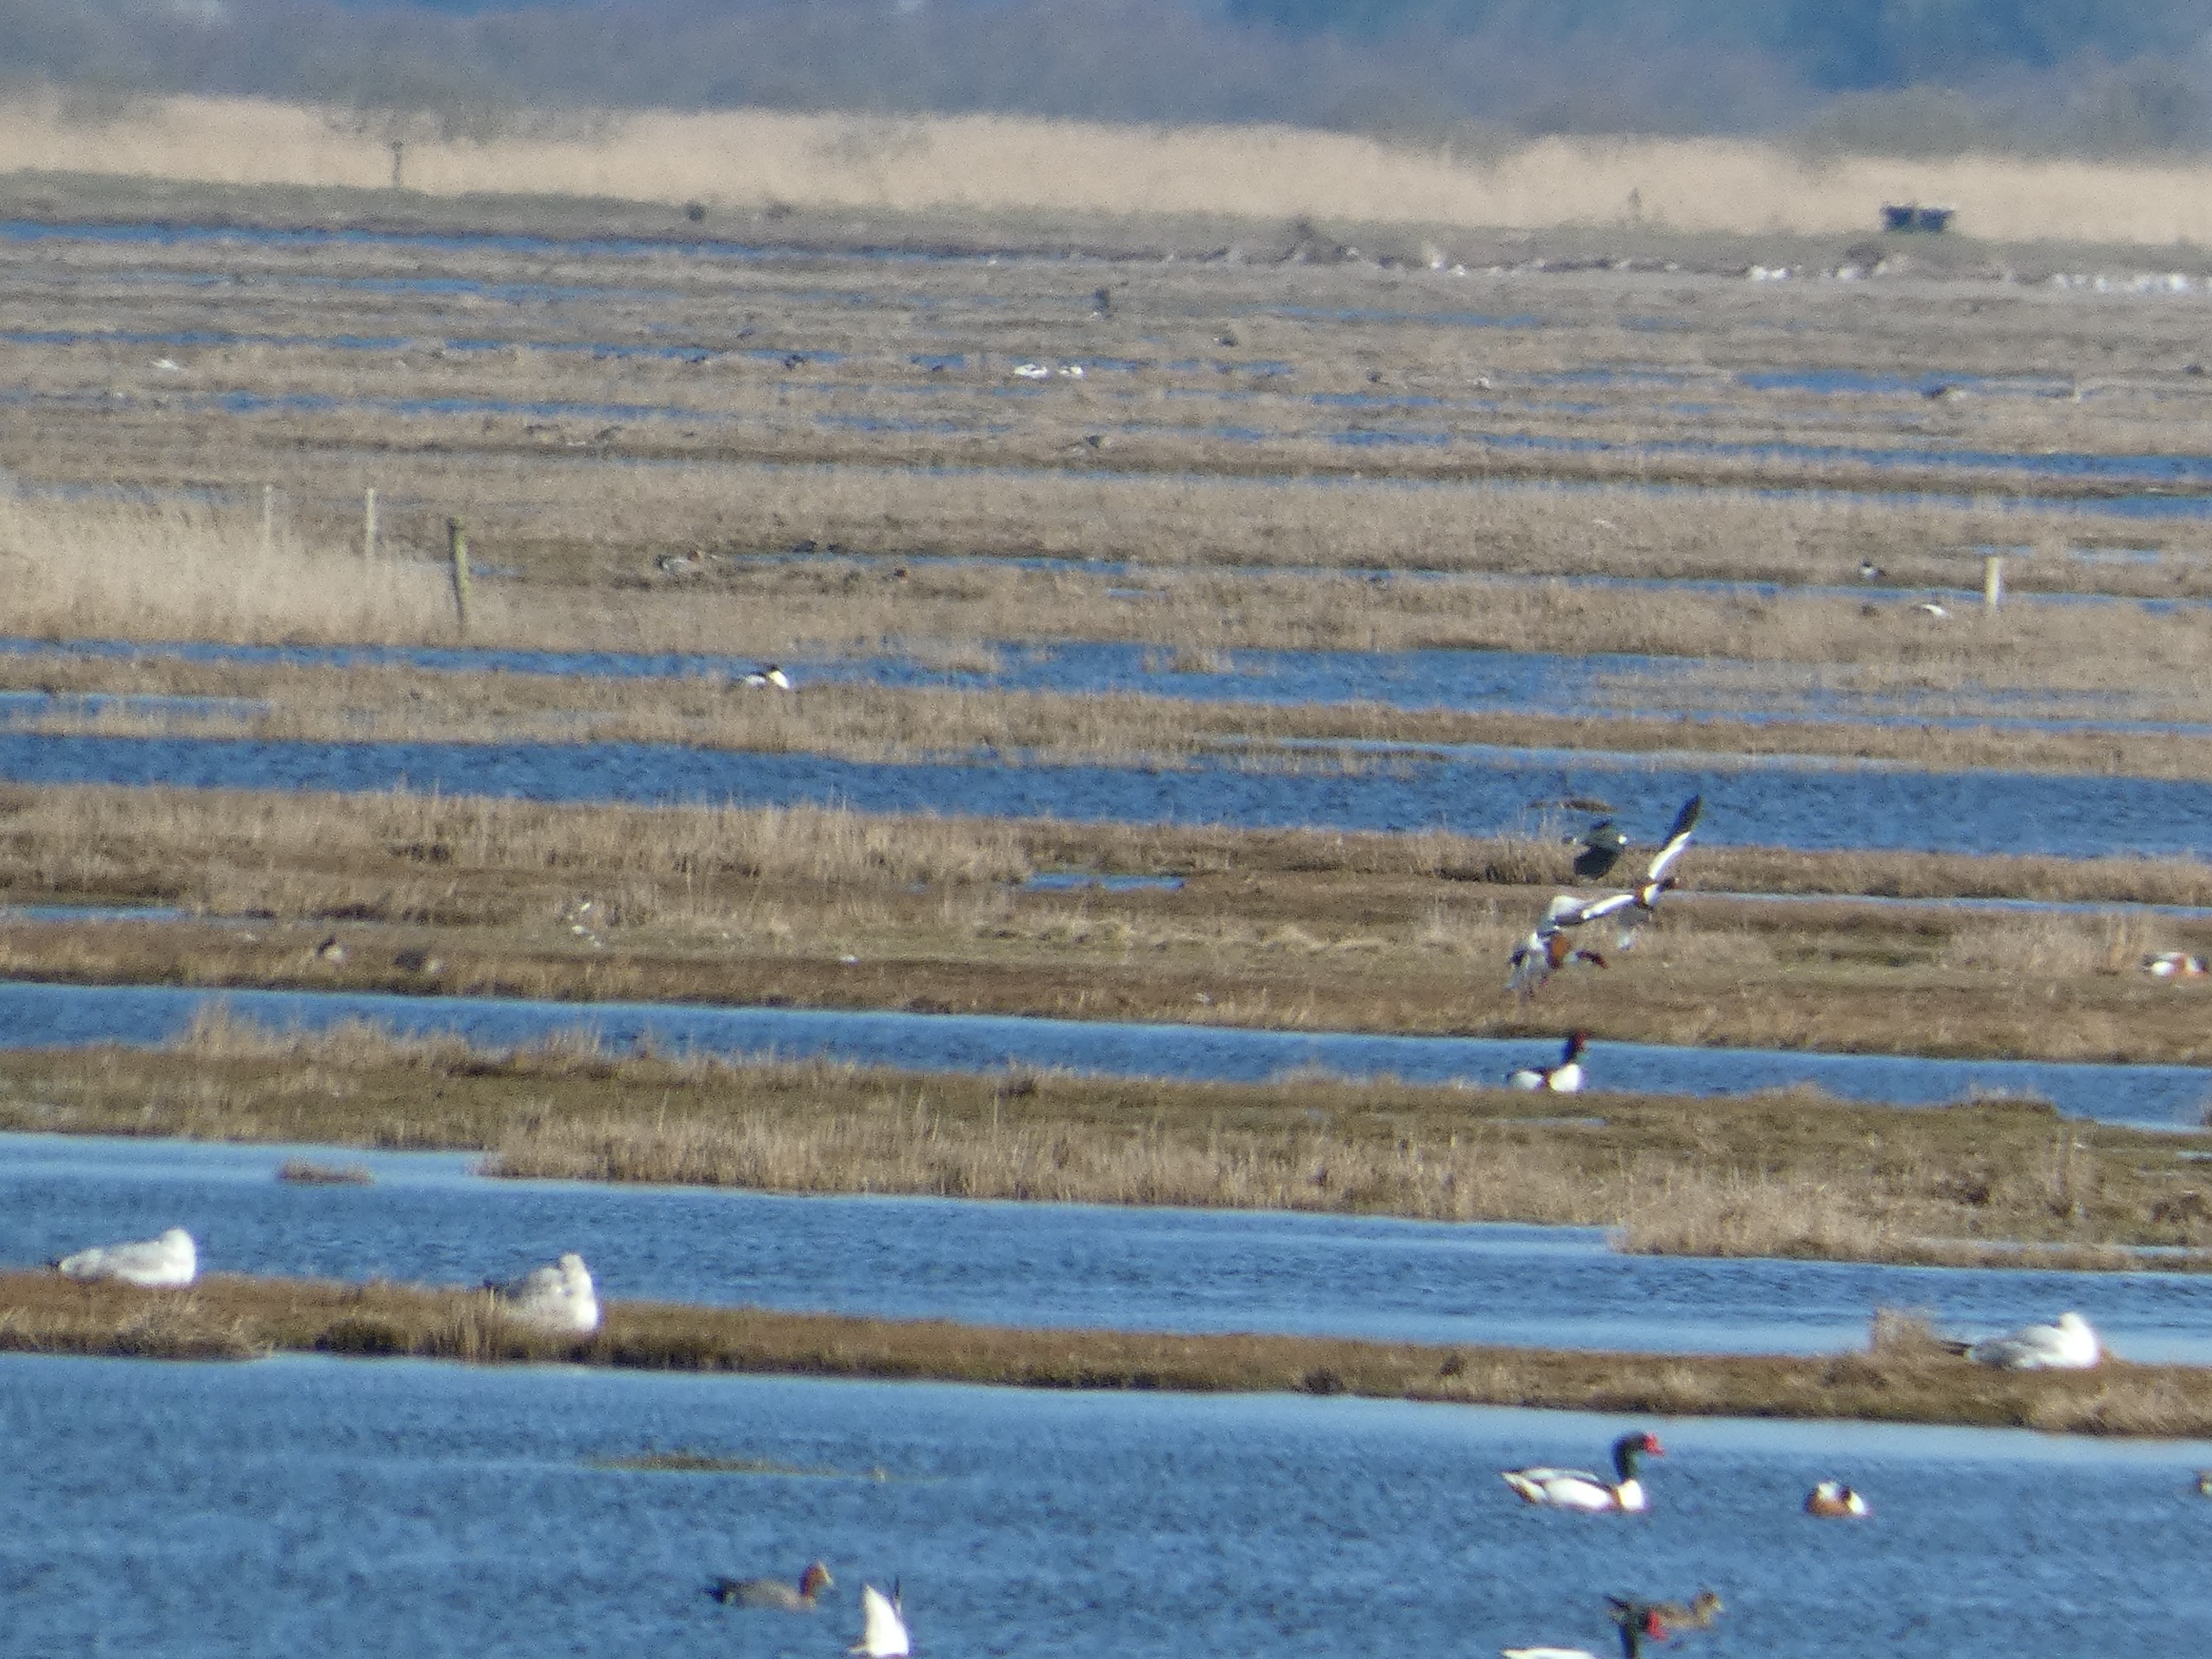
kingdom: Animalia
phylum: Chordata
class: Aves
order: Charadriiformes
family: Charadriidae
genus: Vanellus
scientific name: Vanellus vanellus
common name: Vibe
